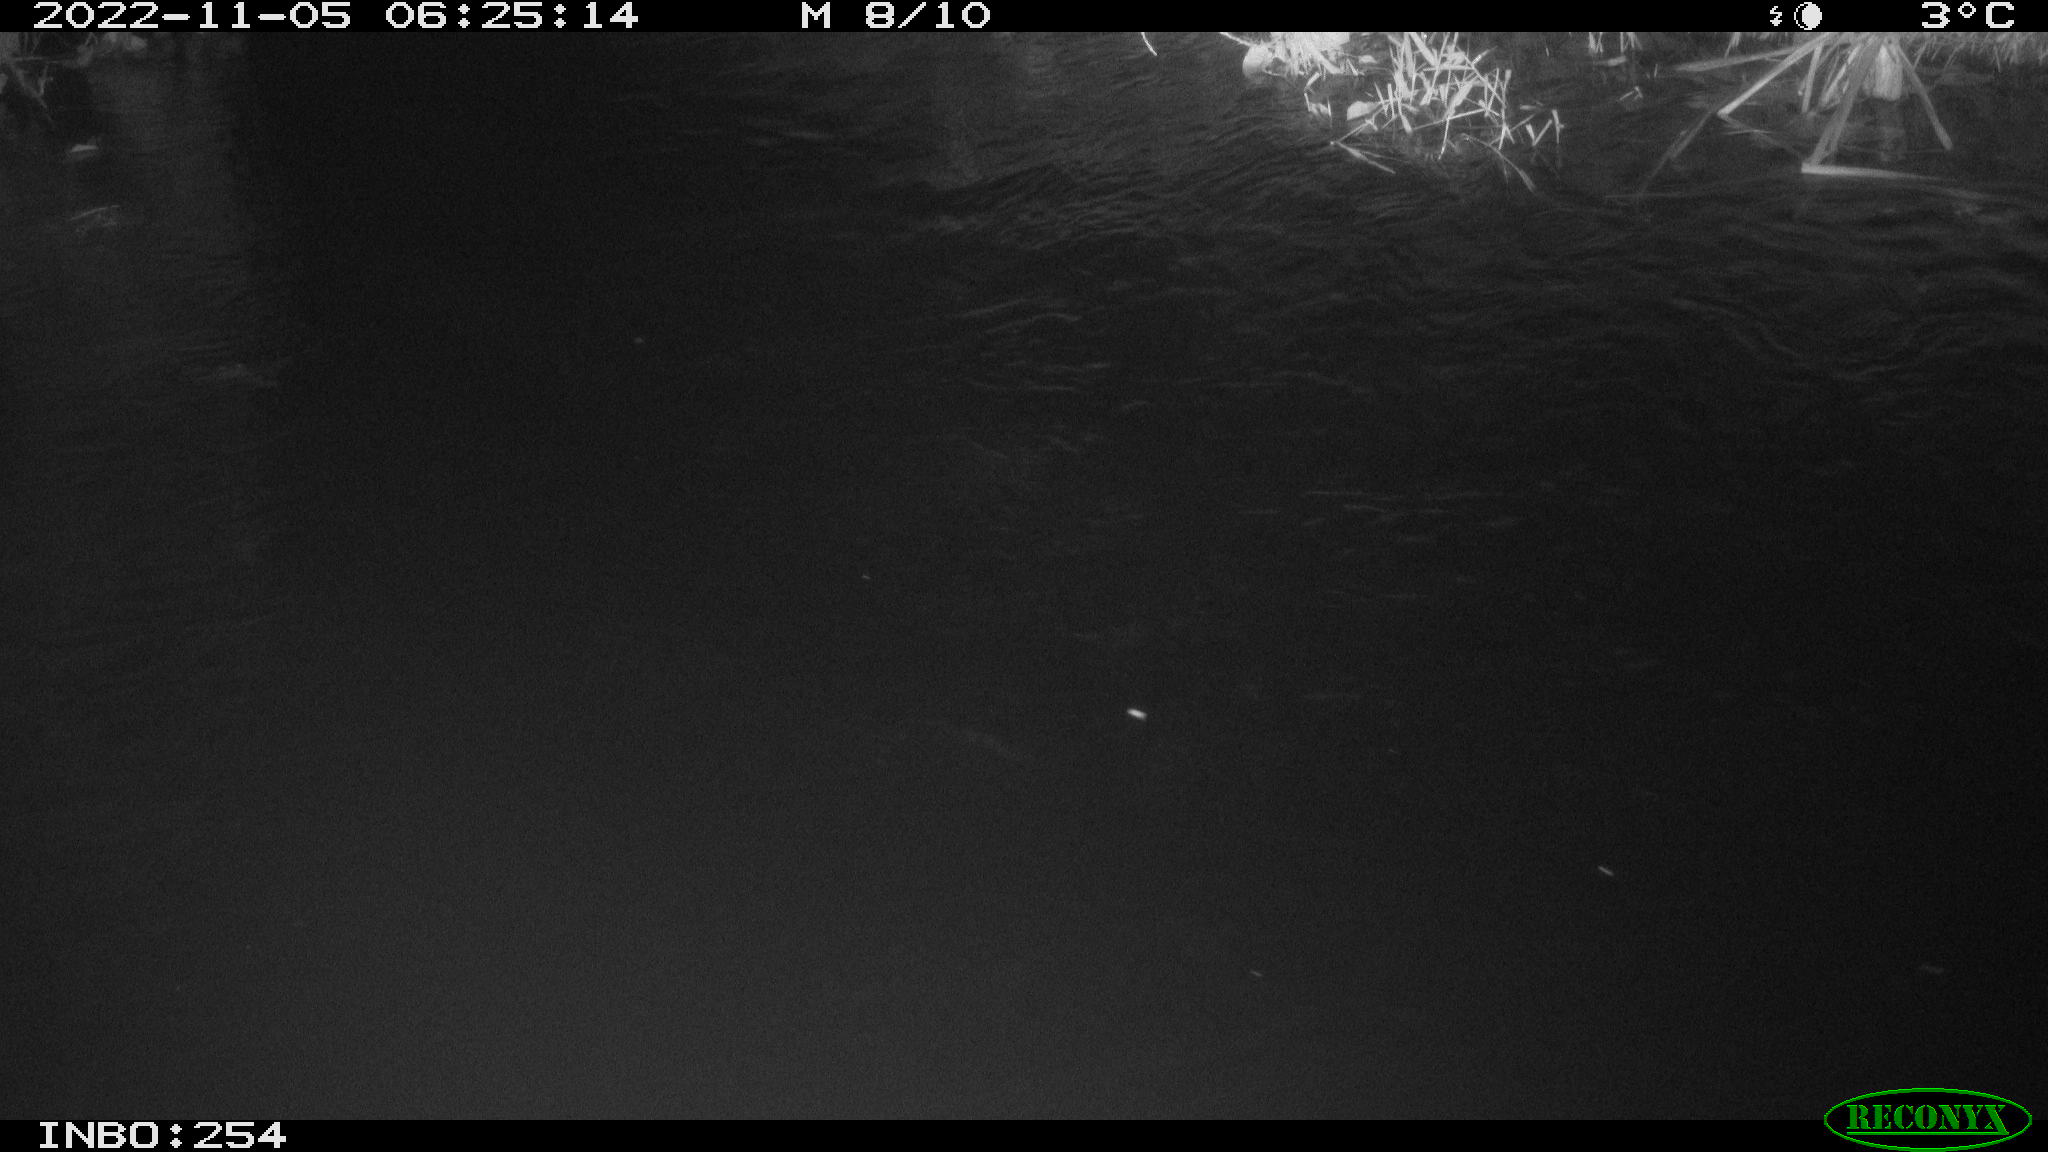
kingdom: Animalia
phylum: Chordata
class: Aves
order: Anseriformes
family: Anatidae
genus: Anas
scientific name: Anas
